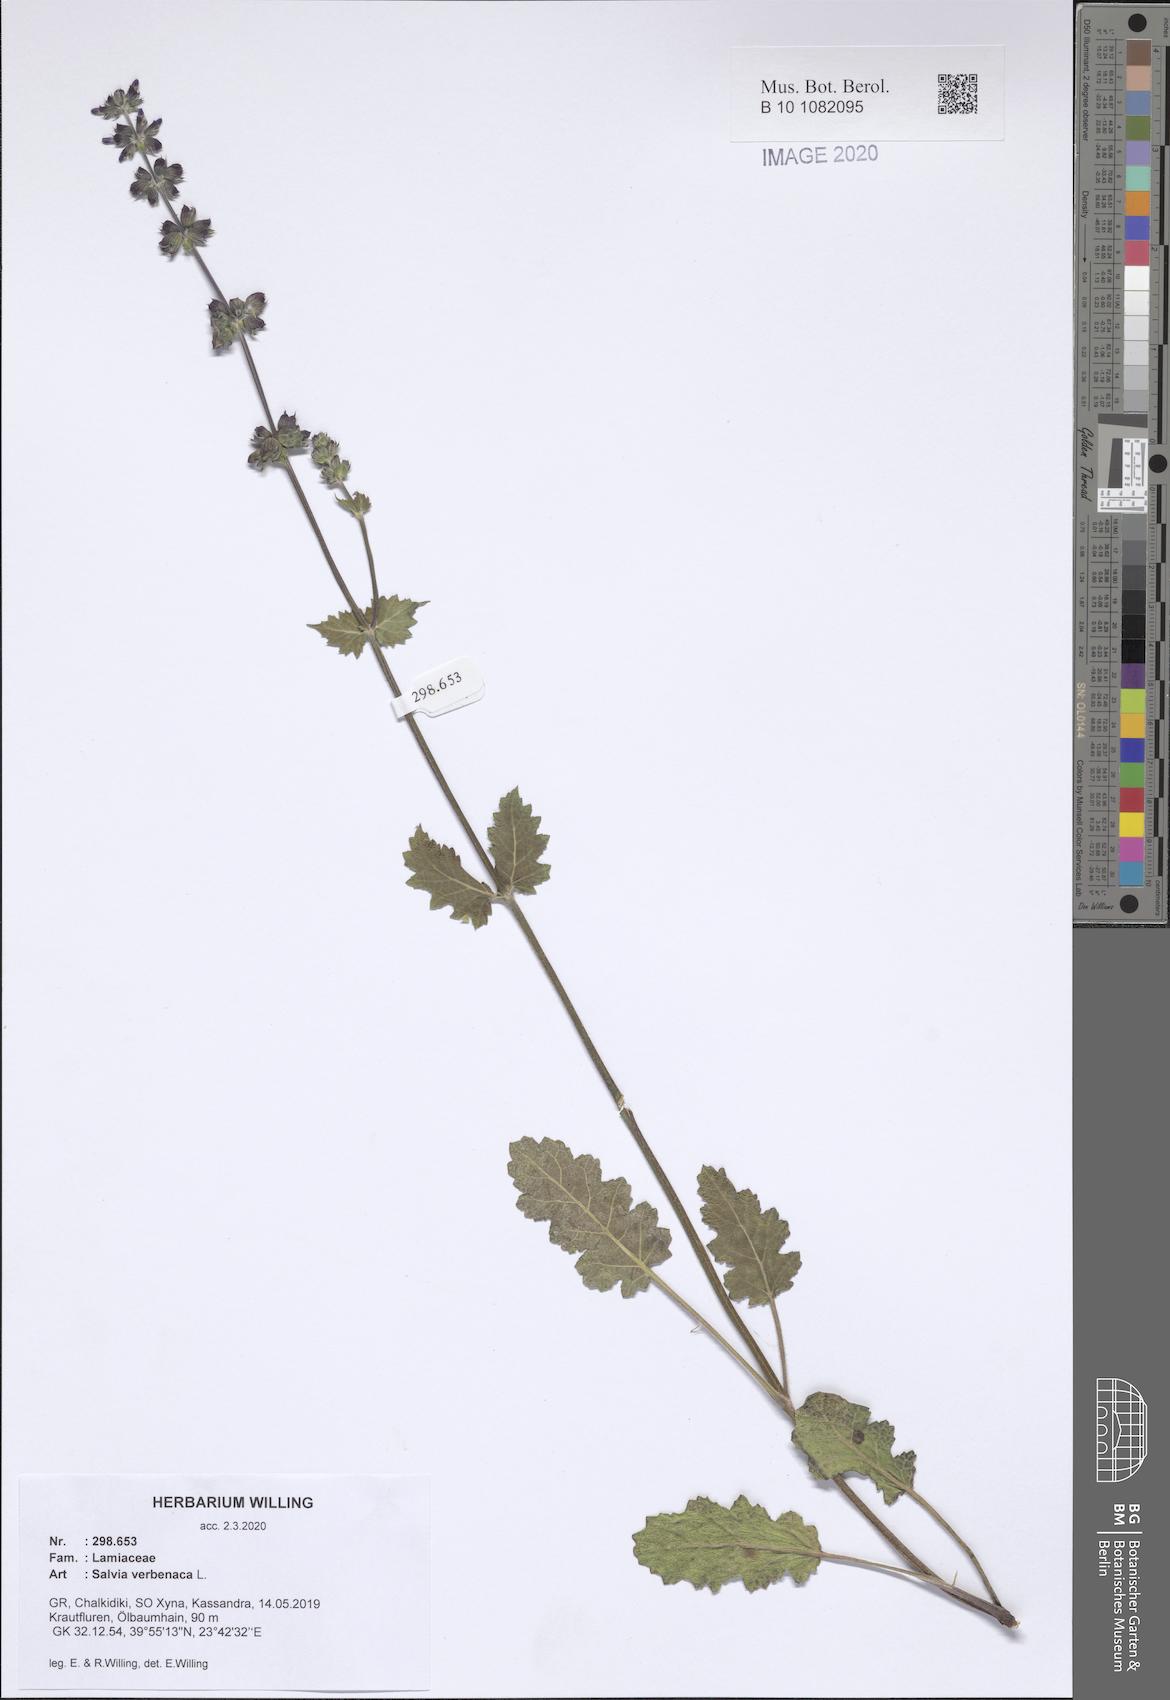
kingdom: Plantae
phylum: Tracheophyta
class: Magnoliopsida
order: Lamiales
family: Lamiaceae
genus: Salvia
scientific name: Salvia verbenaca
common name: Wild clary
